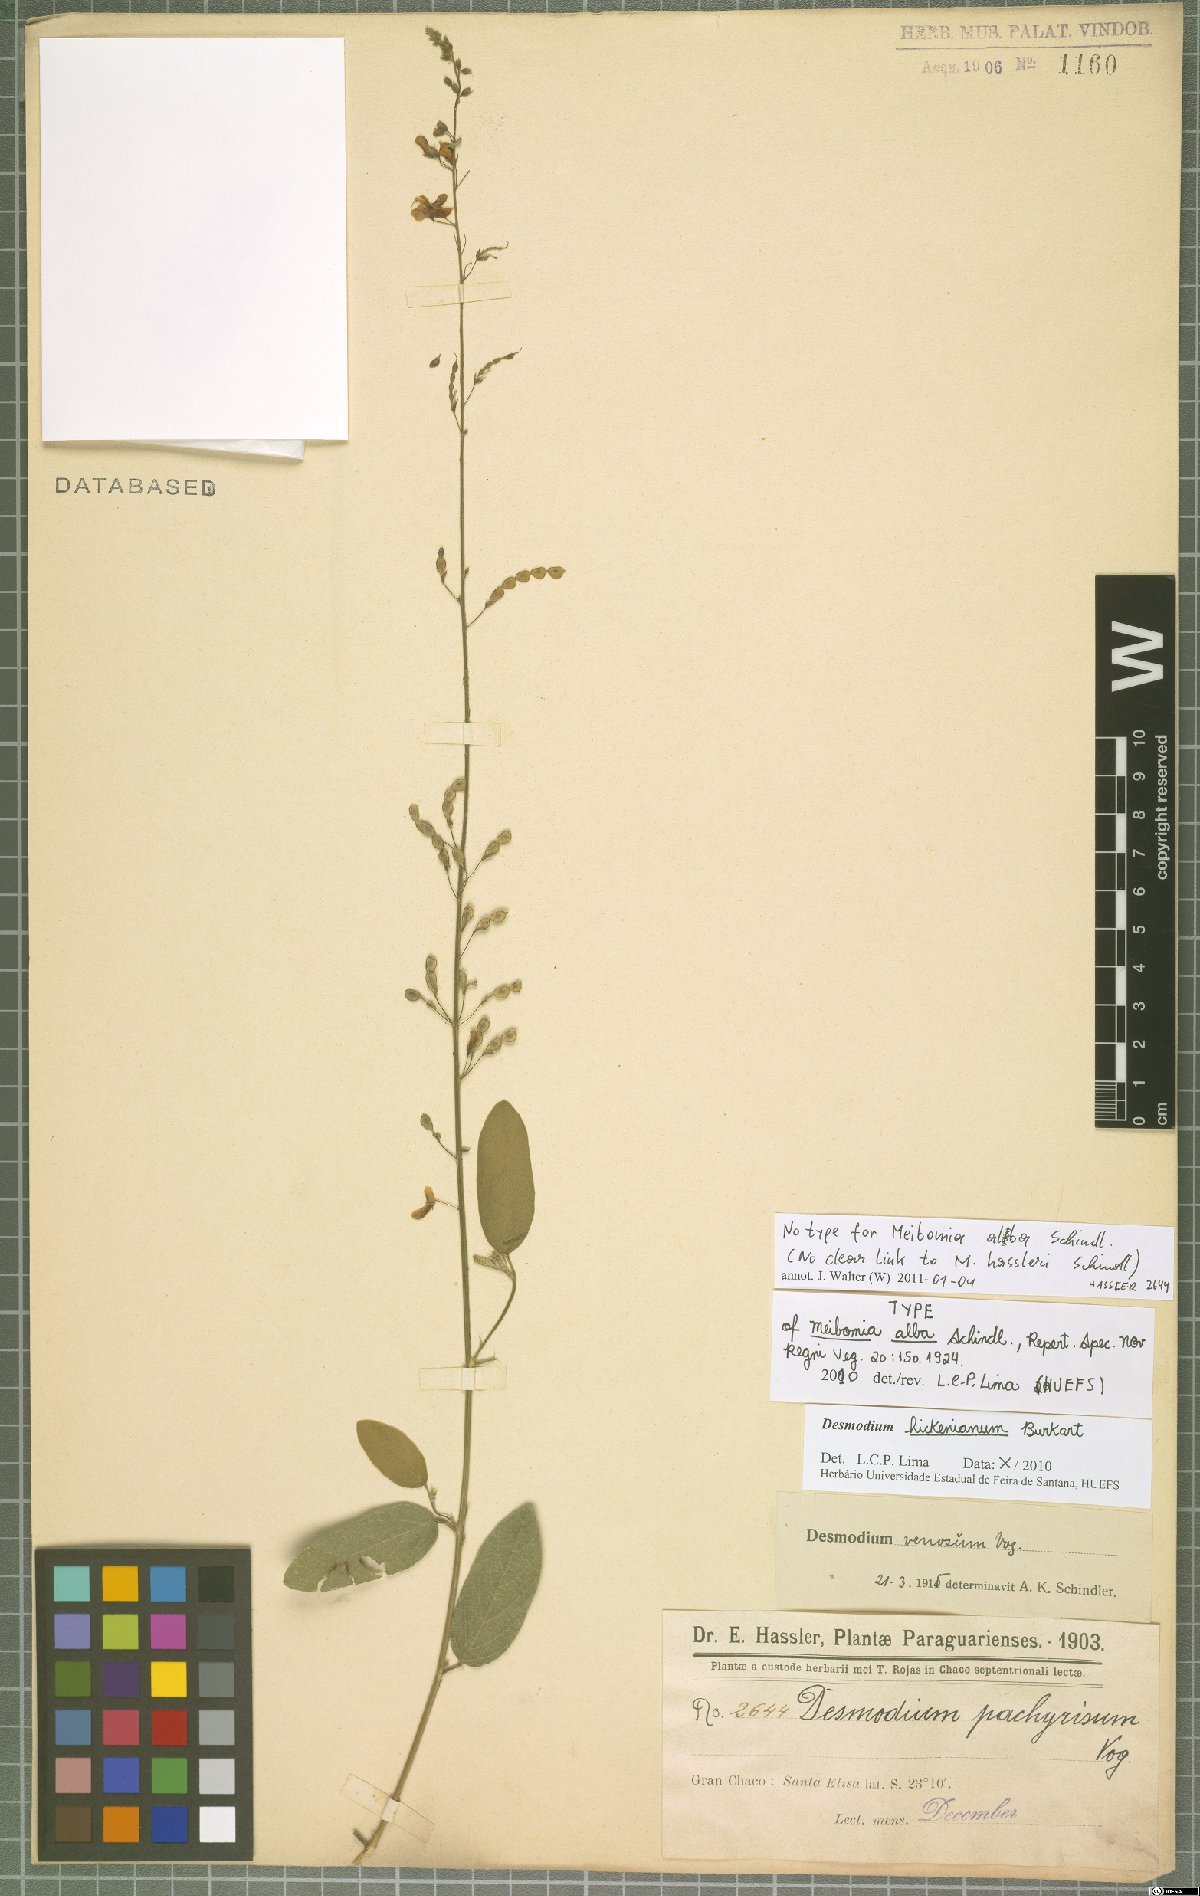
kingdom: Plantae
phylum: Tracheophyta
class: Magnoliopsida
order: Fabales
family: Fabaceae
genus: Desmodium
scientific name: Desmodium microcarpum
